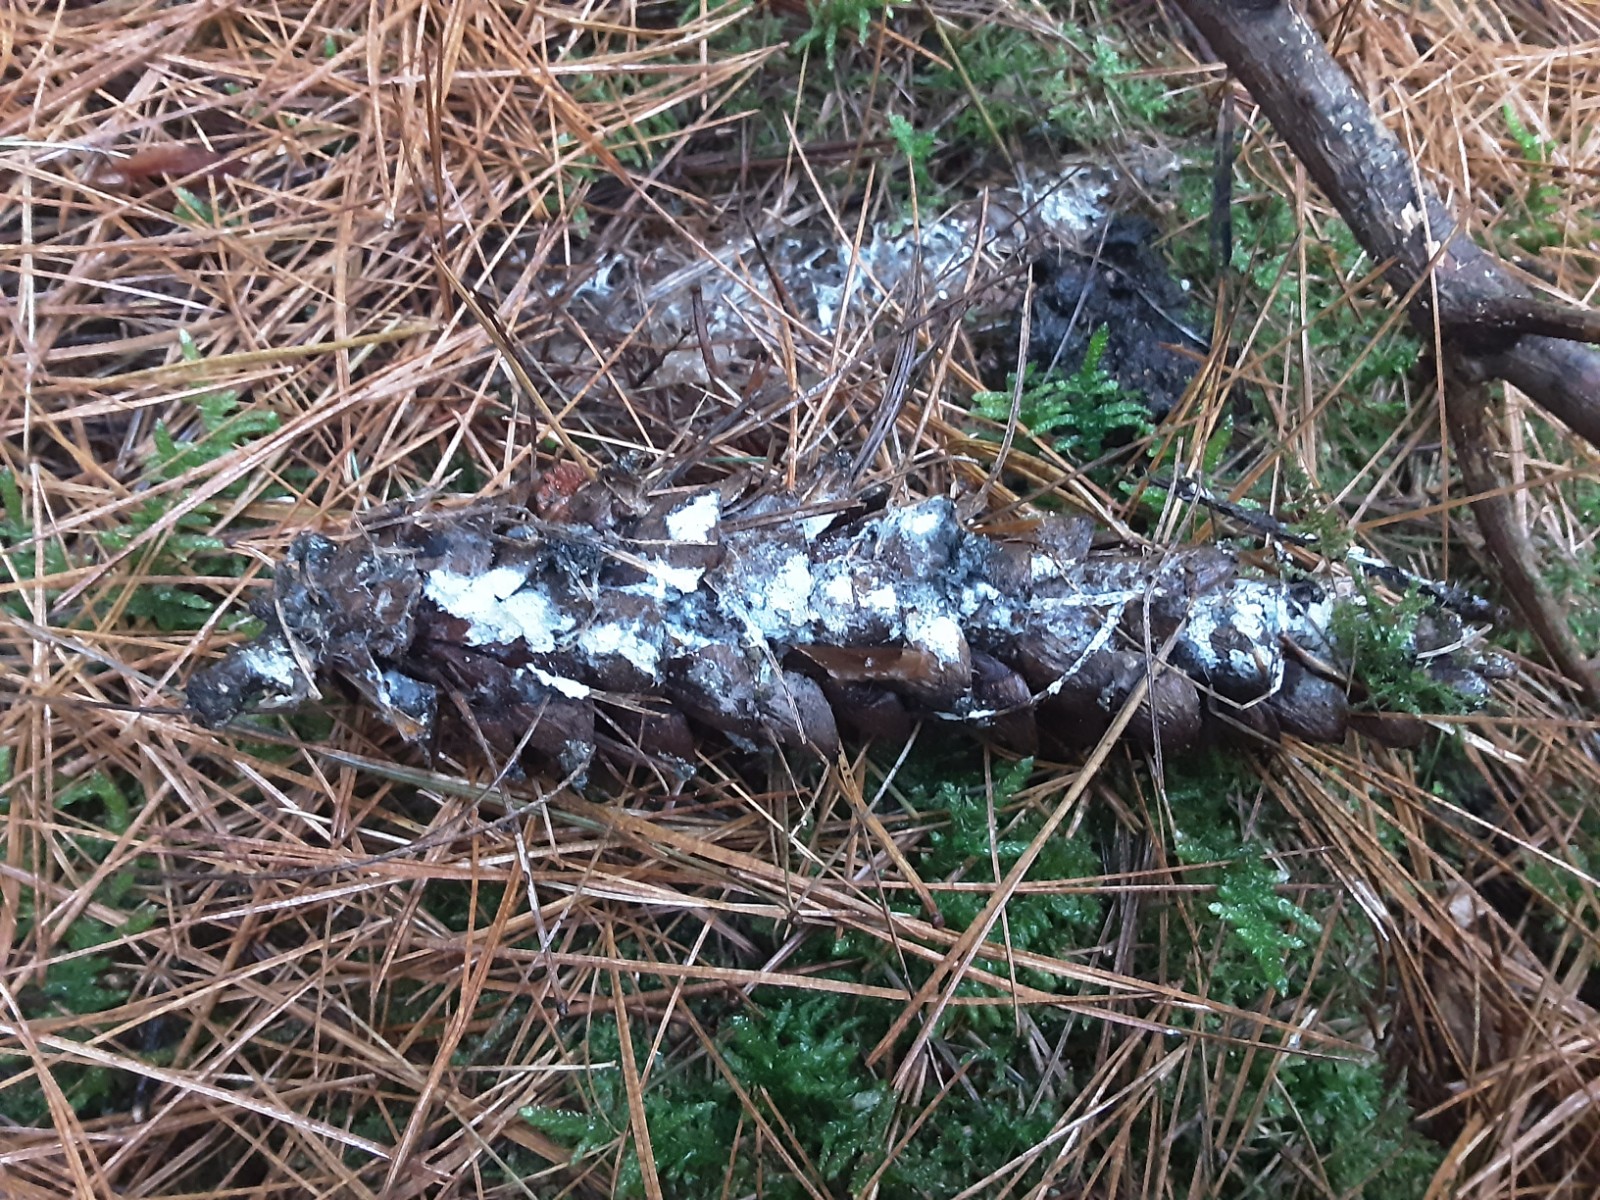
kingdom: Fungi
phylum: Basidiomycota
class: Agaricomycetes
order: Atheliales
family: Atheliaceae
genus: Amphinema
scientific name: Amphinema byssoides
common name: almindelig rodhinde
